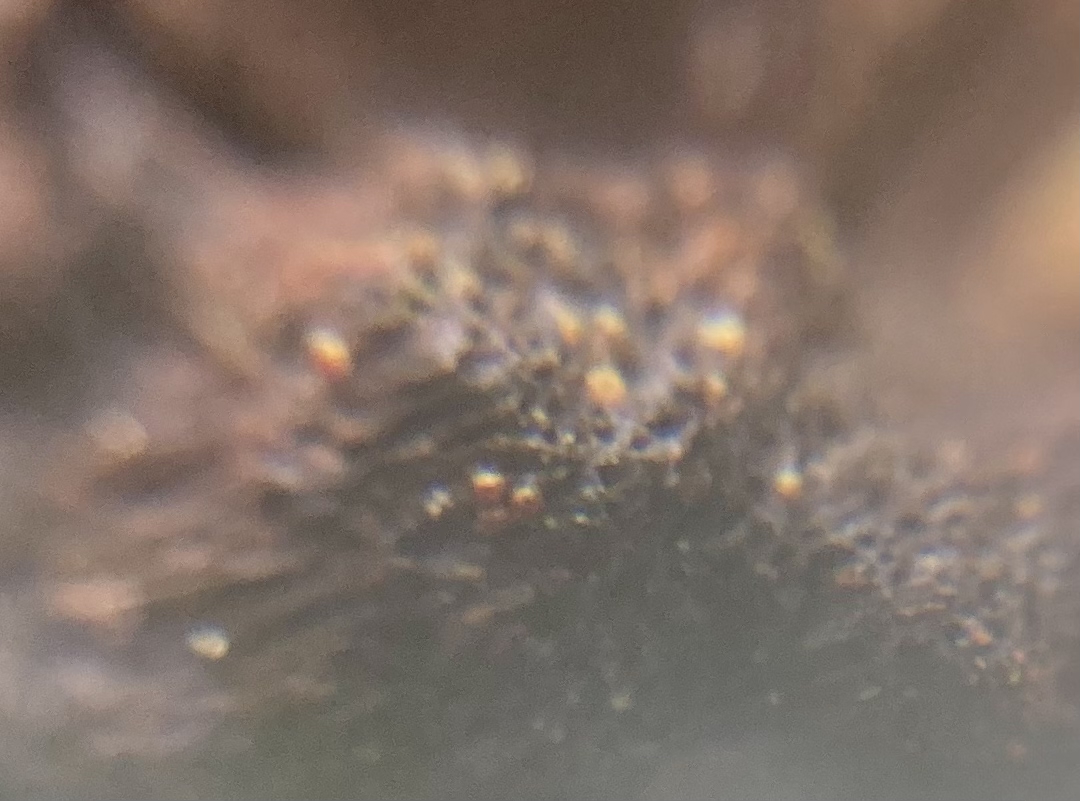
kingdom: Fungi
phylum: Ascomycota
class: Sordariomycetes
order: Hypocreales
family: Nectriaceae
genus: Cosmospora
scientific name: Cosmospora coccinea
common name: spejlpore-cinnobersvamp
